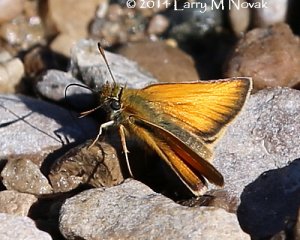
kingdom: Animalia
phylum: Arthropoda
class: Insecta
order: Lepidoptera
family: Hesperiidae
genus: Thymelicus
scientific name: Thymelicus lineola
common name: European Skipper
